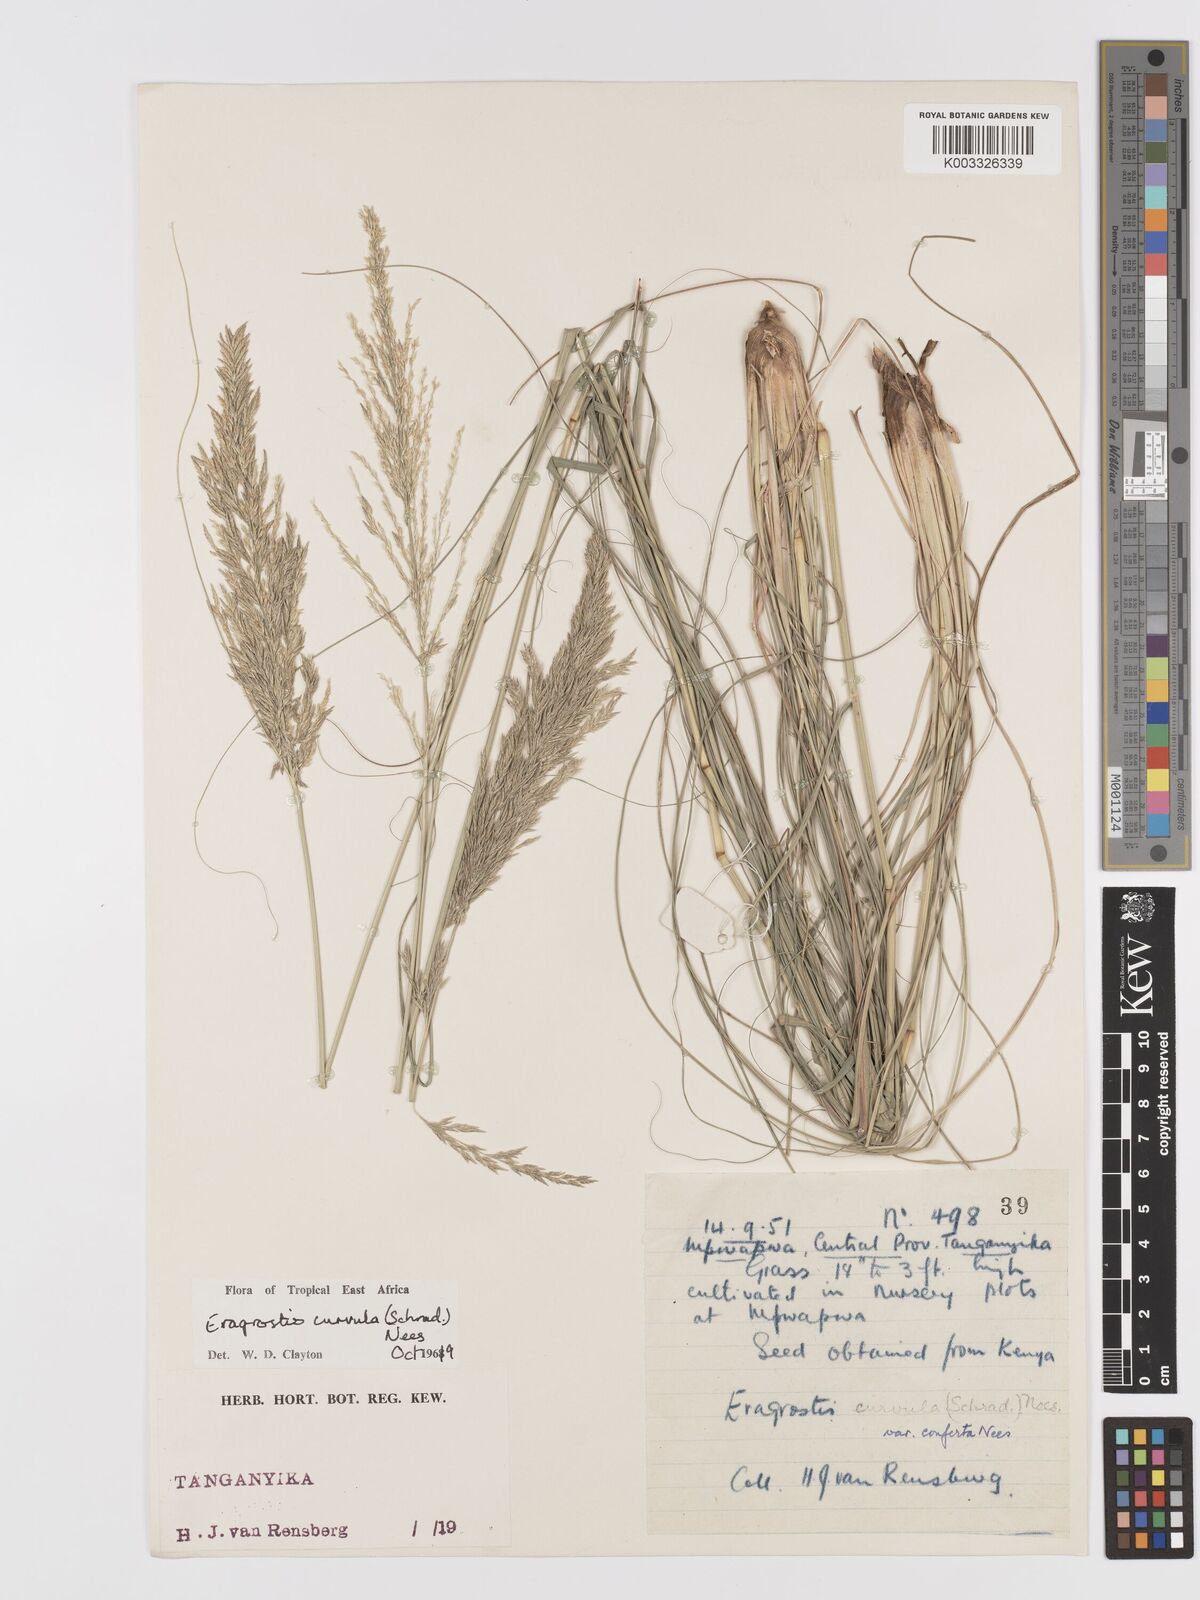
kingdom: Plantae
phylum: Tracheophyta
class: Liliopsida
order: Poales
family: Poaceae
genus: Eragrostis
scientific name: Eragrostis curvula
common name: African love-grass
